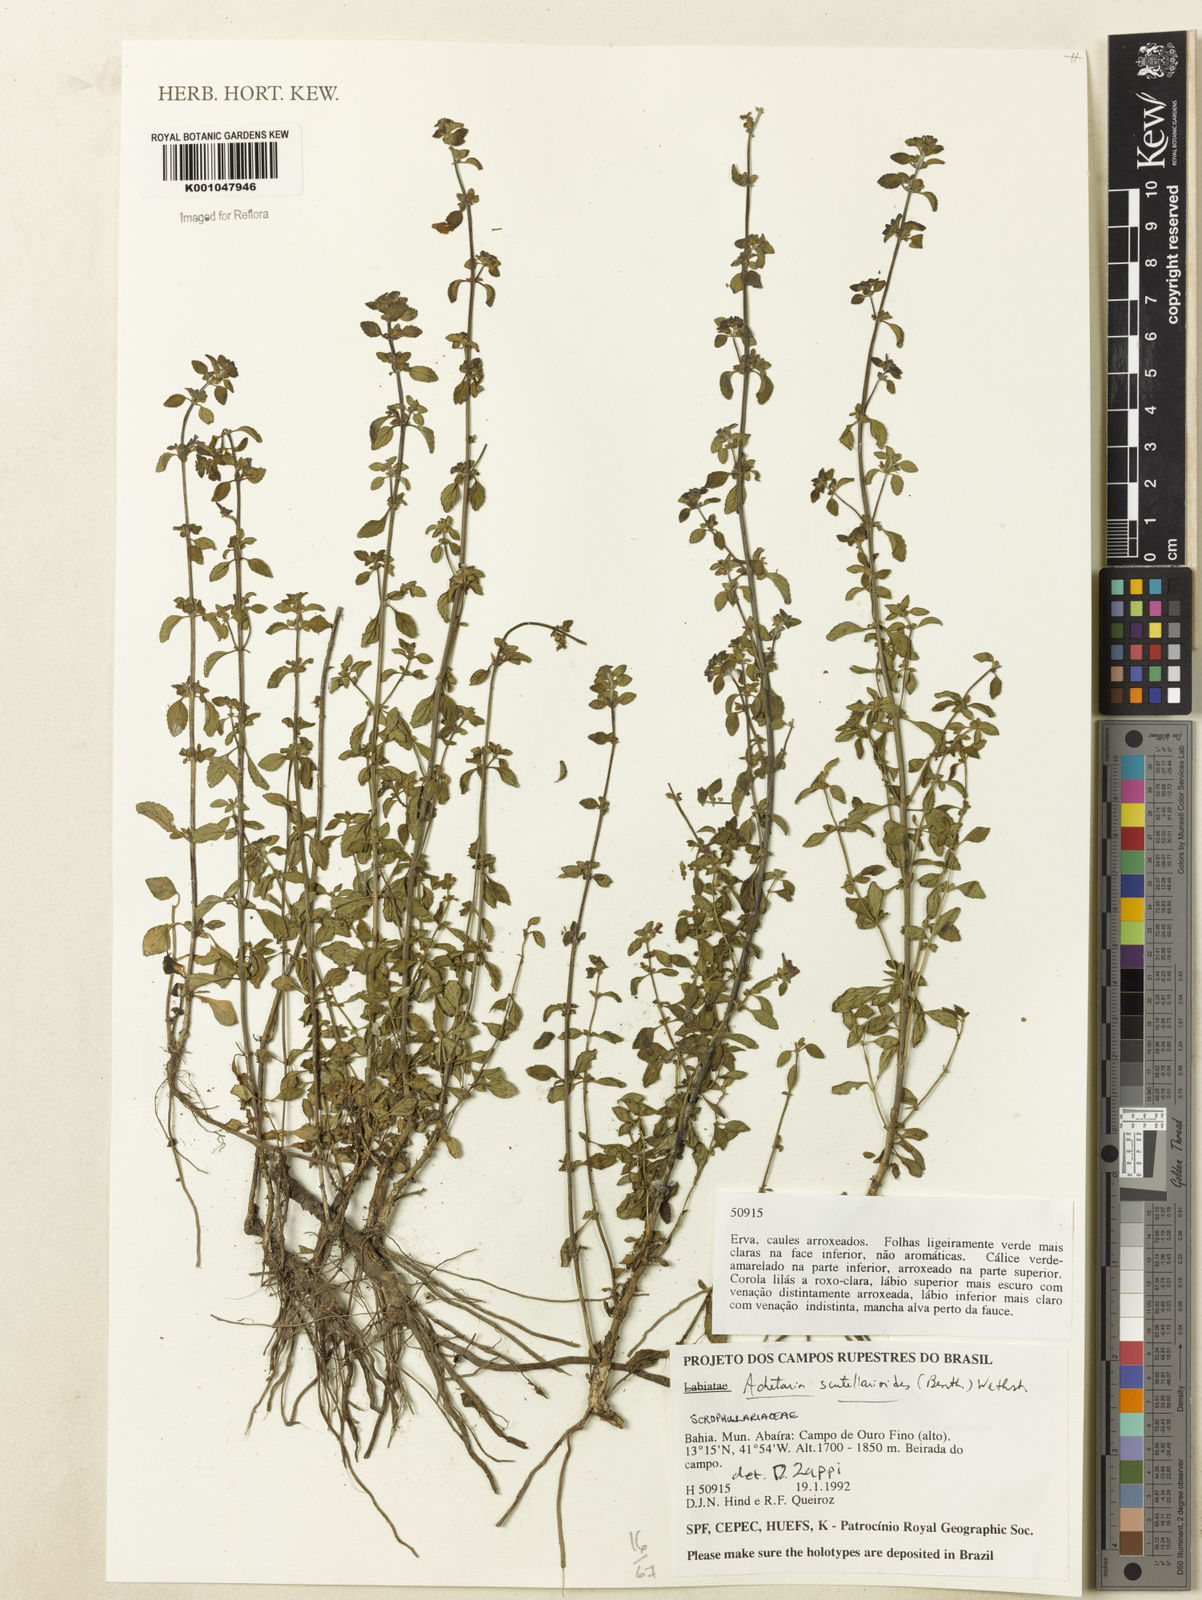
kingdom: Plantae
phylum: Tracheophyta
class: Magnoliopsida
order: Lamiales
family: Plantaginaceae
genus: Matourea
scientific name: Matourea scutellarioides
